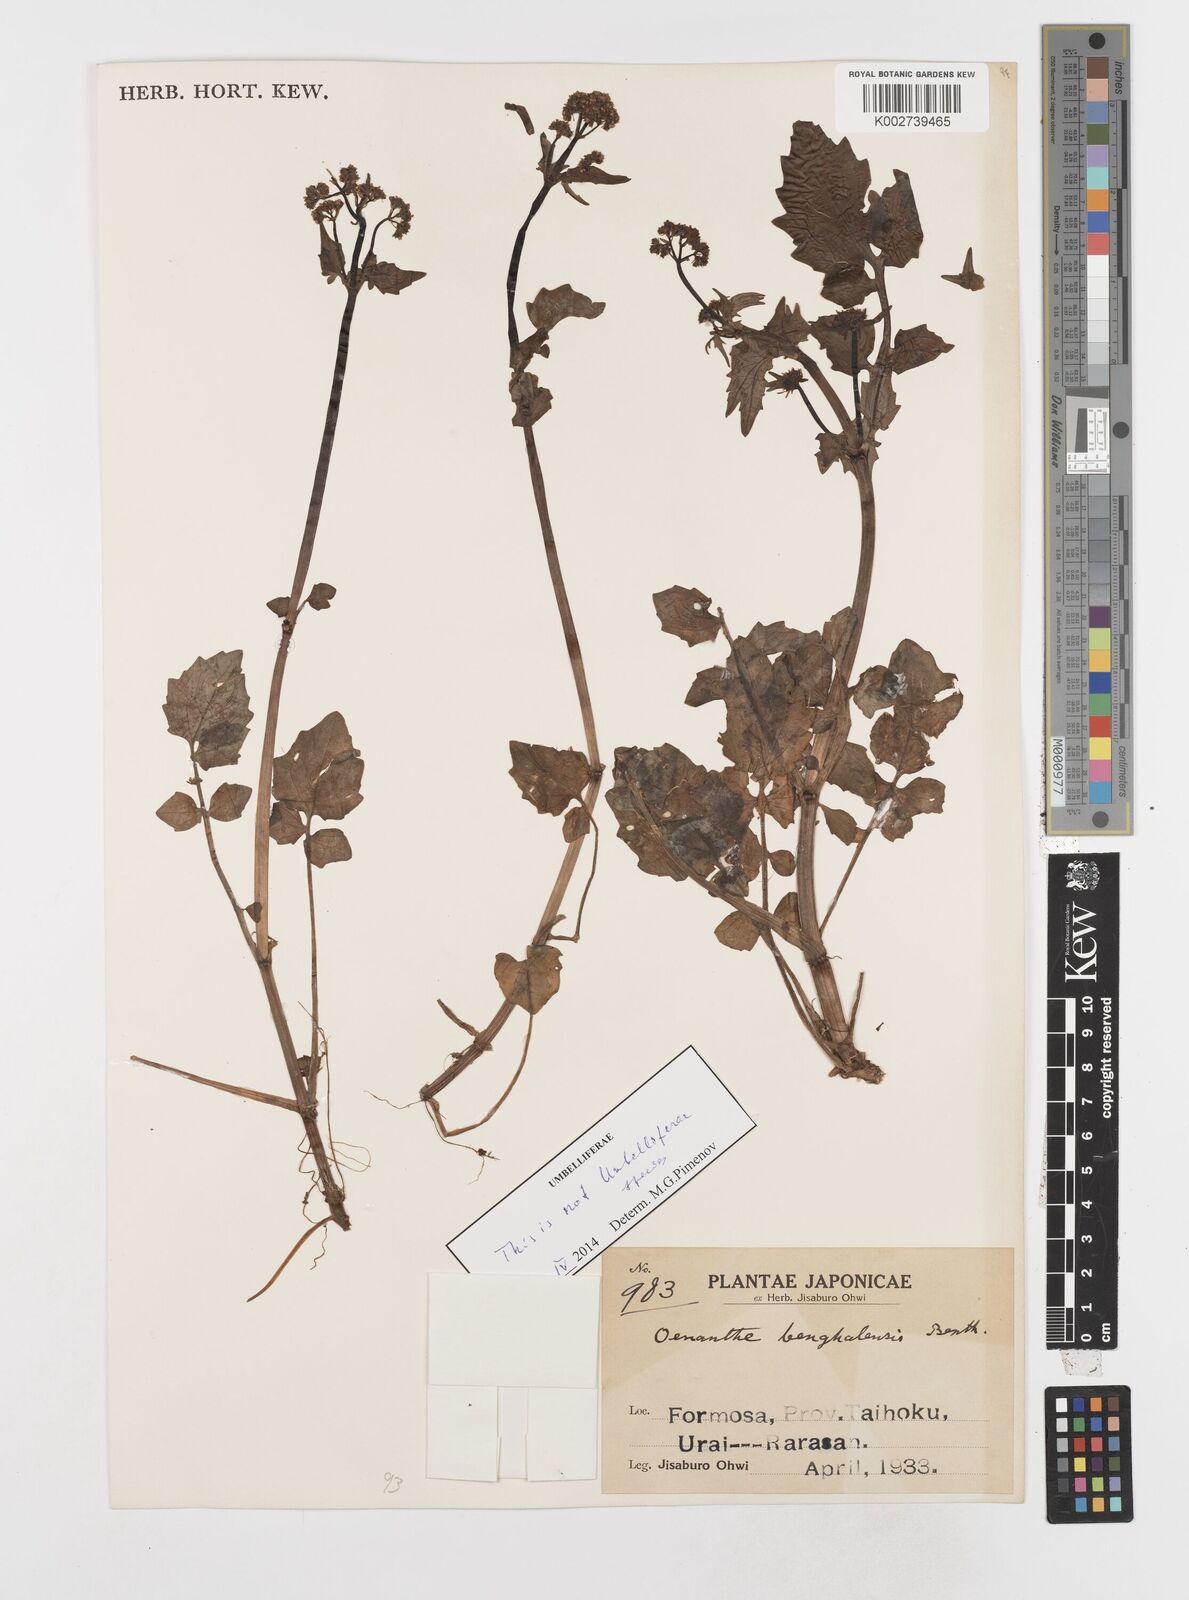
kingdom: Plantae
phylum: Tracheophyta
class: Magnoliopsida
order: Apiales
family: Apiaceae
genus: Oenanthe
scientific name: Oenanthe javanica
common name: Java water-dropwort
